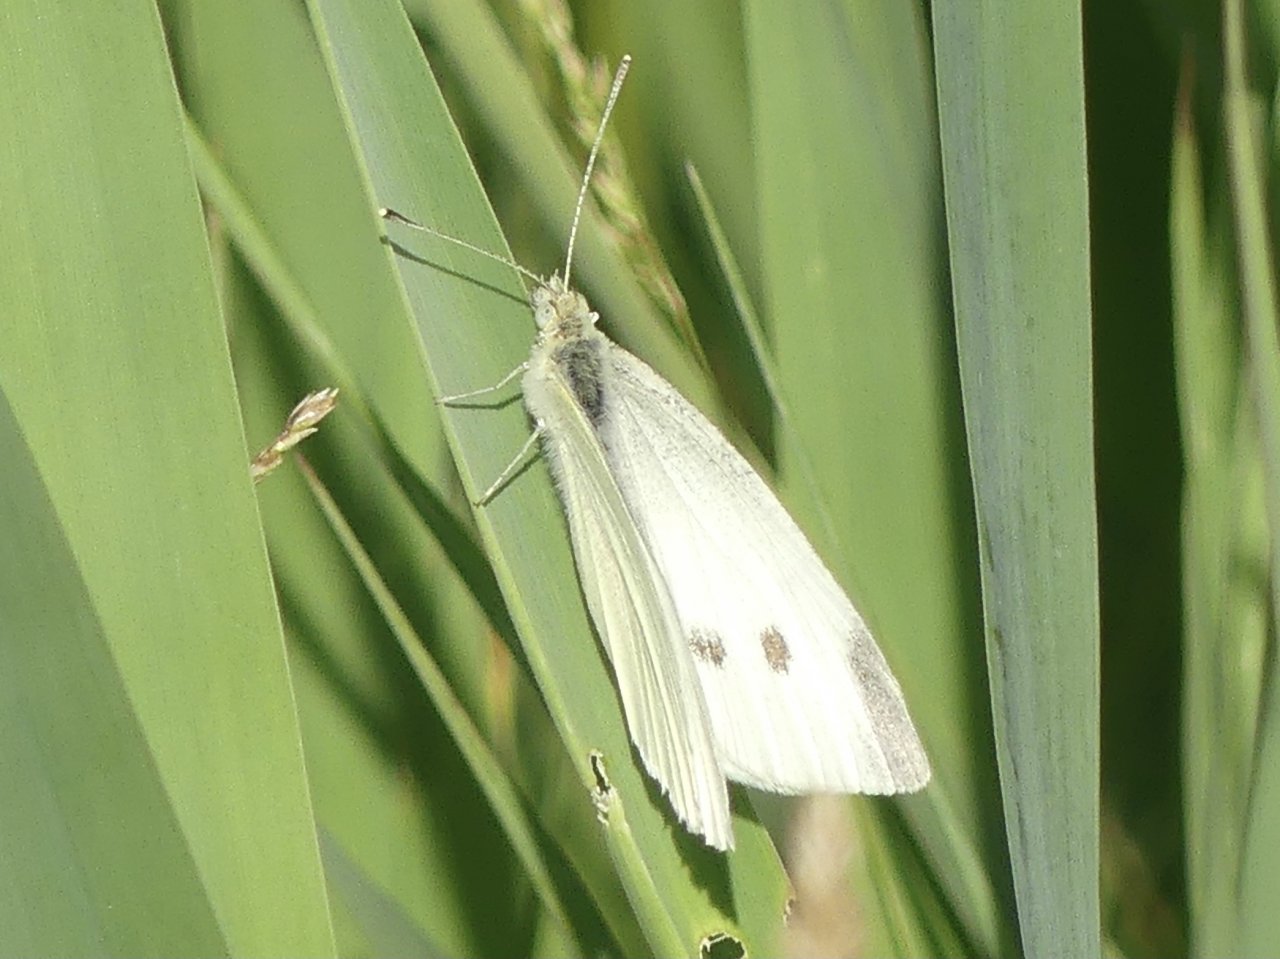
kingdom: Animalia
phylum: Arthropoda
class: Insecta
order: Lepidoptera
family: Pieridae
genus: Pieris
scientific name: Pieris rapae
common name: Cabbage White
